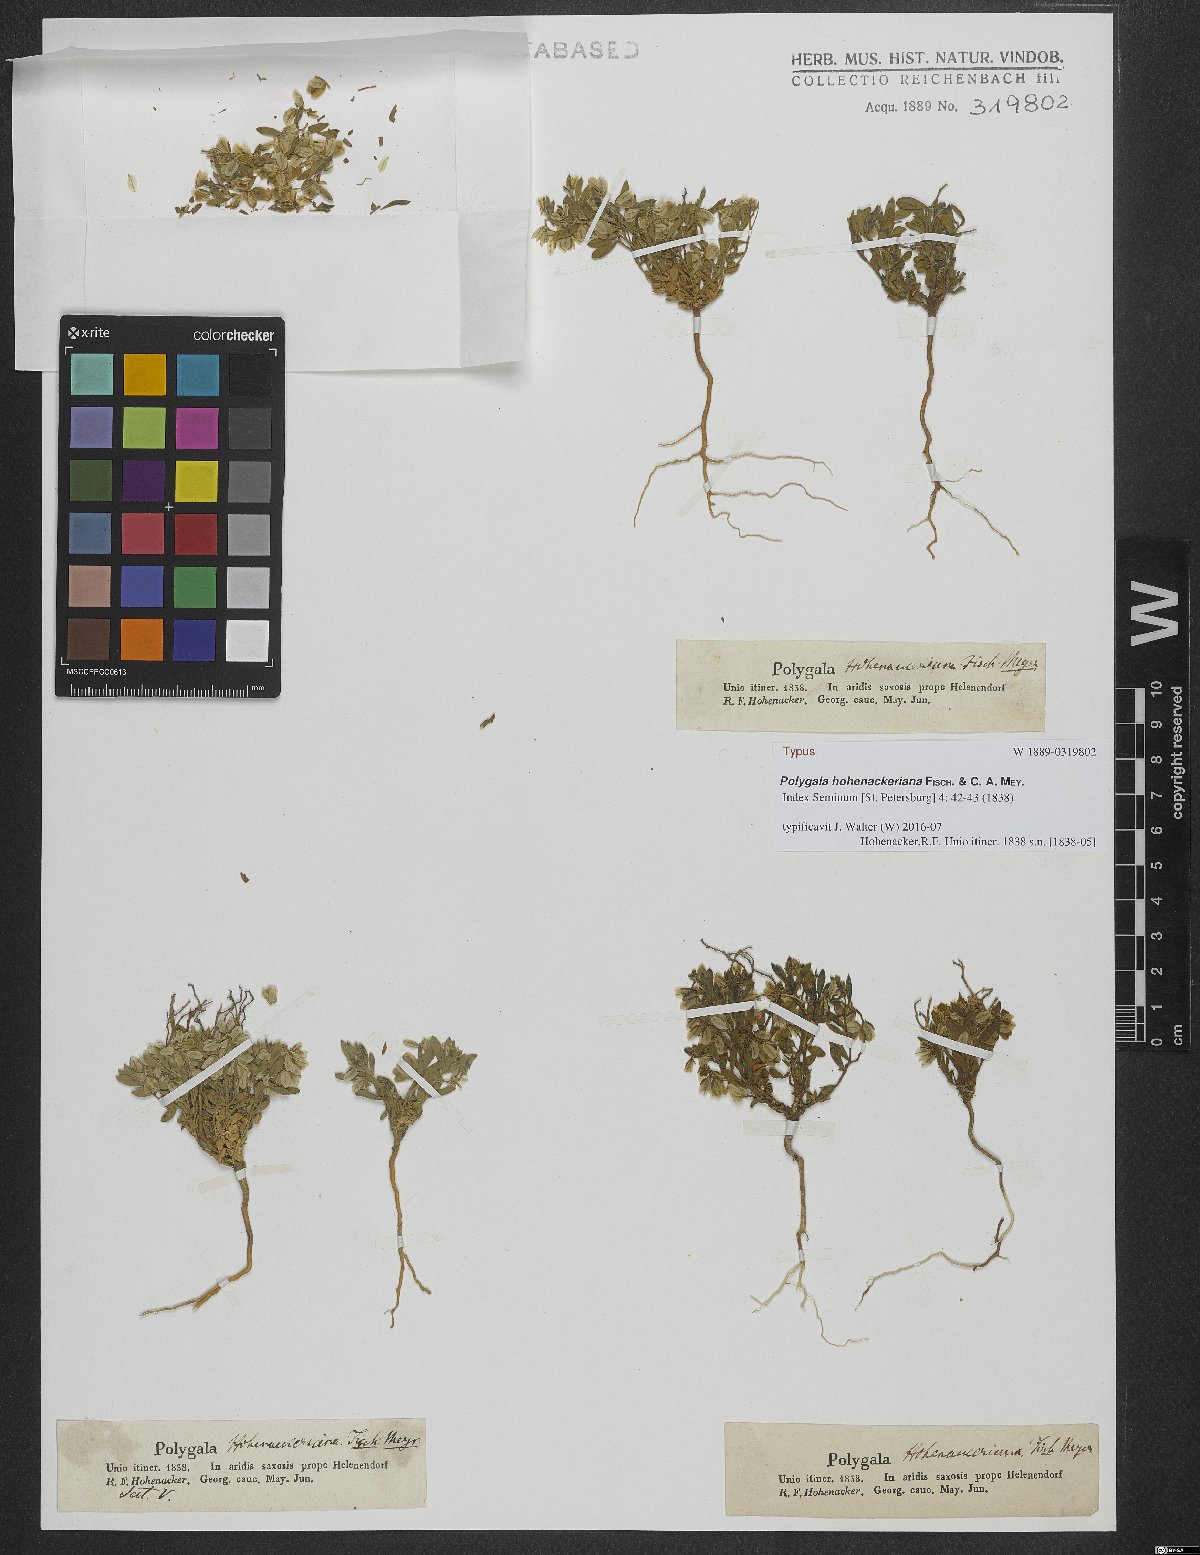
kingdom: Plantae
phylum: Tracheophyta
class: Magnoliopsida
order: Fabales
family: Polygalaceae
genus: Polygala
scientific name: Polygala hohenackeriana
